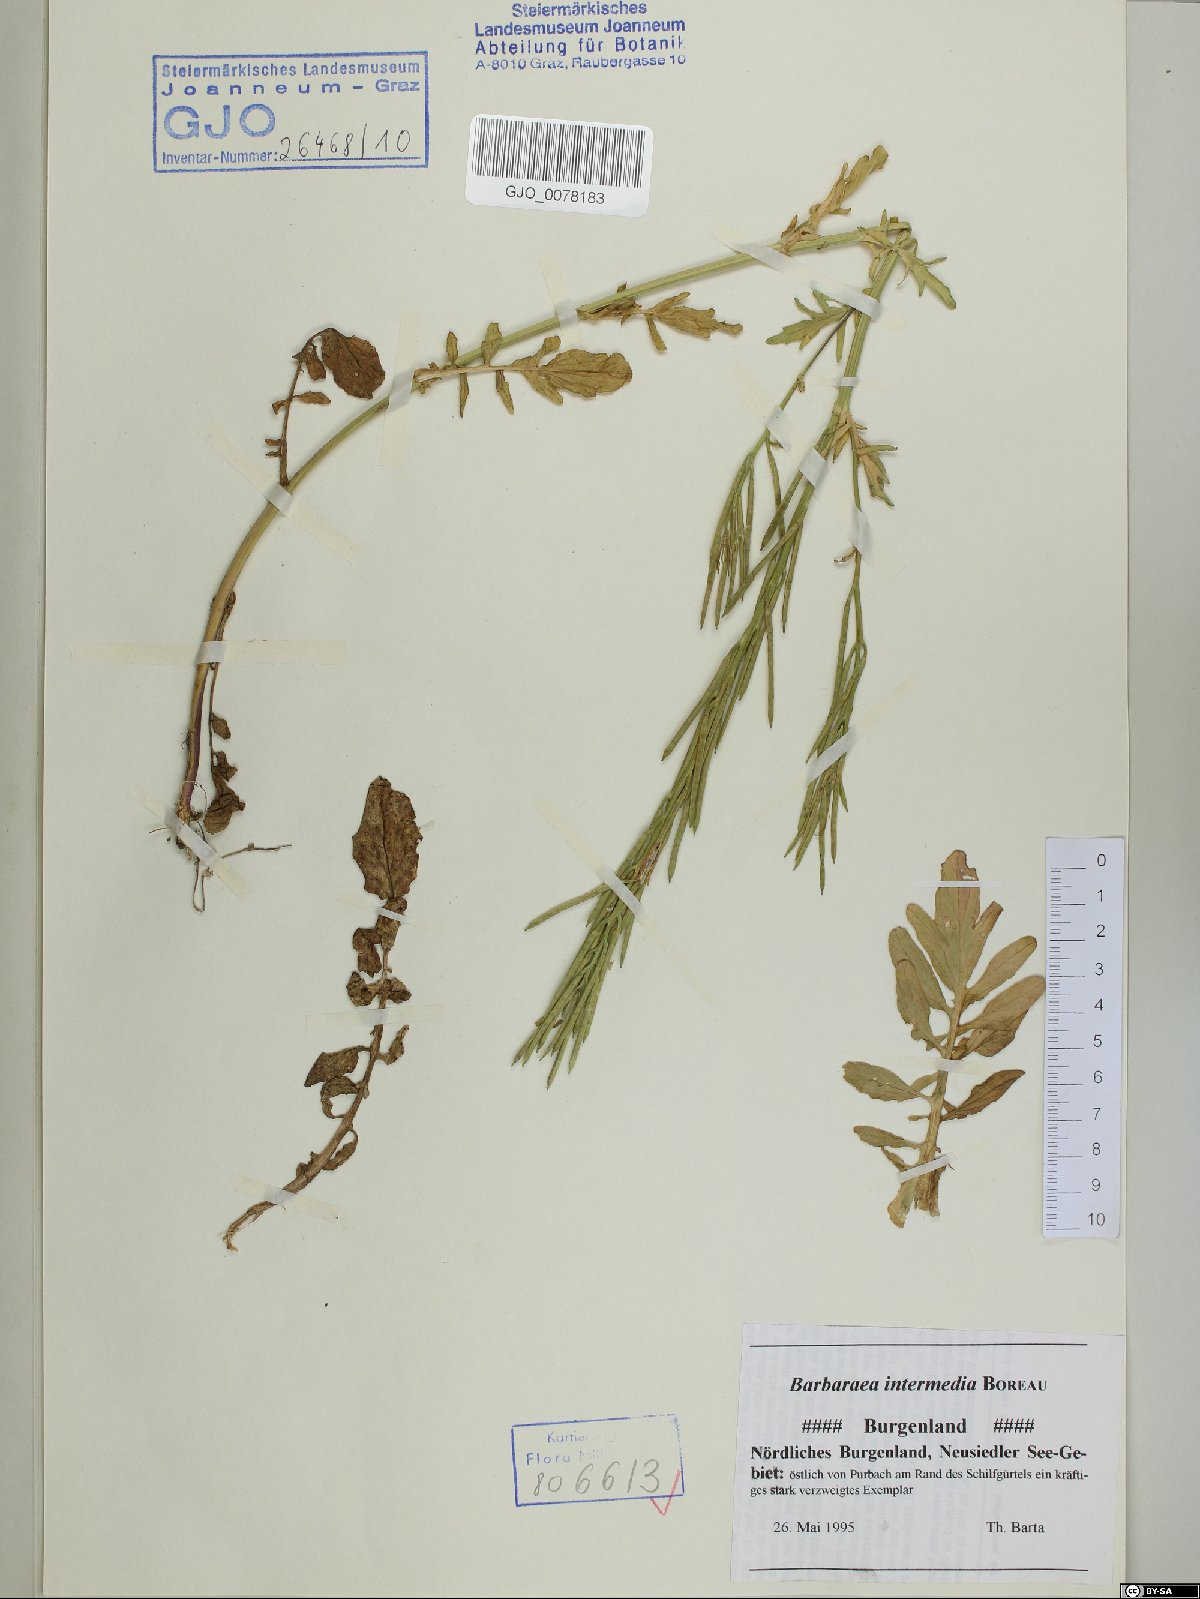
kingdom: Plantae
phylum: Tracheophyta
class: Magnoliopsida
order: Brassicales
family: Brassicaceae
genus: Barbarea
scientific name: Barbarea intermedia
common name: Medium-flowered winter-cress
